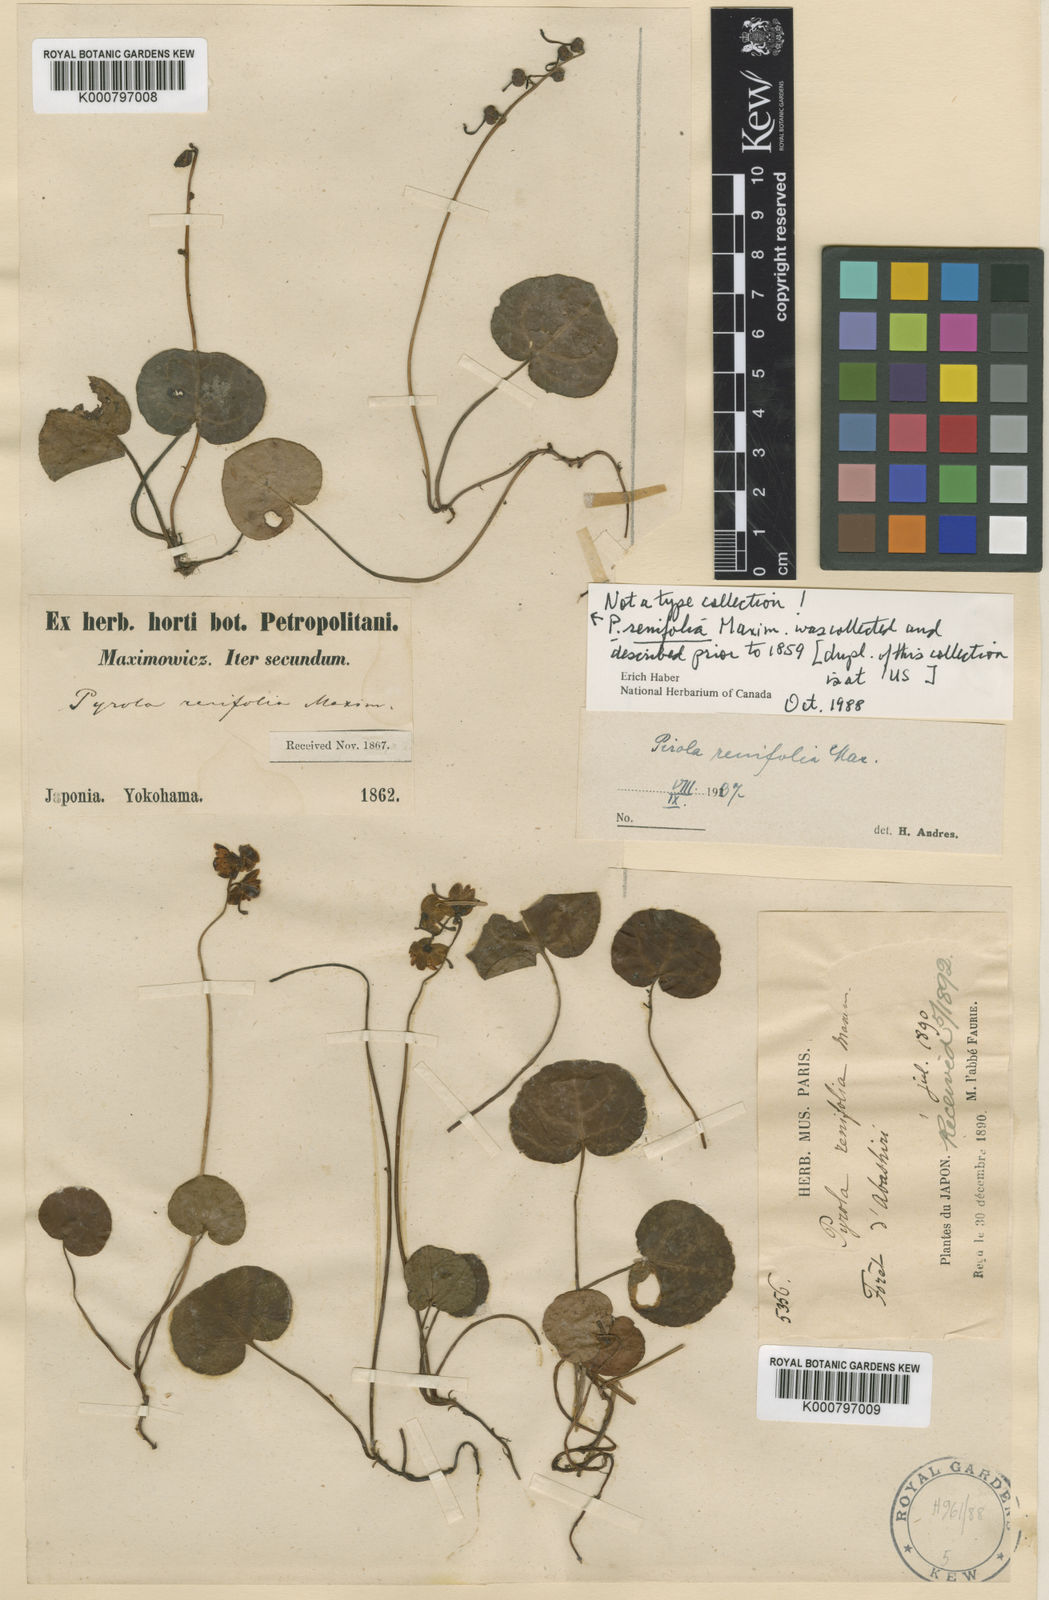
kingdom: Plantae
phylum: Tracheophyta
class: Magnoliopsida
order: Ericales
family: Ericaceae
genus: Pyrola
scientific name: Pyrola renifolia
